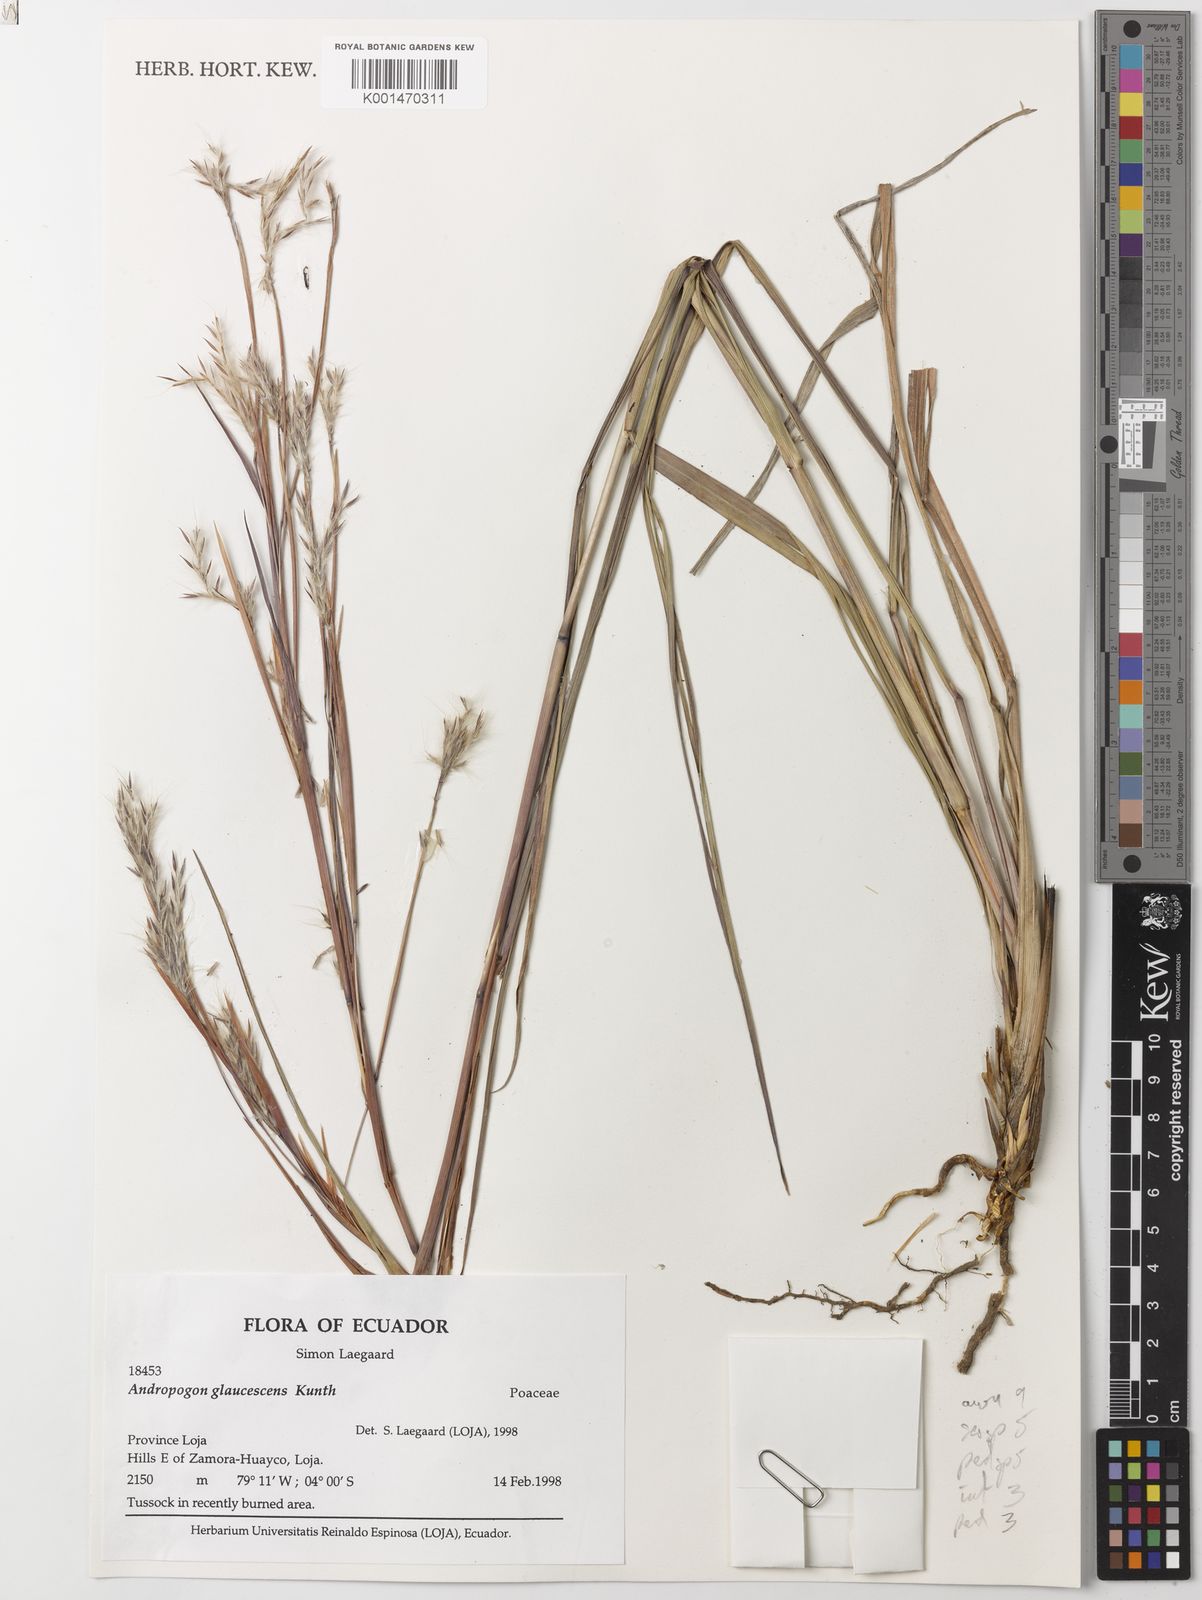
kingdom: Plantae
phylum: Tracheophyta
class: Liliopsida
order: Poales
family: Poaceae
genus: Andropogon
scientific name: Andropogon glaucescens
